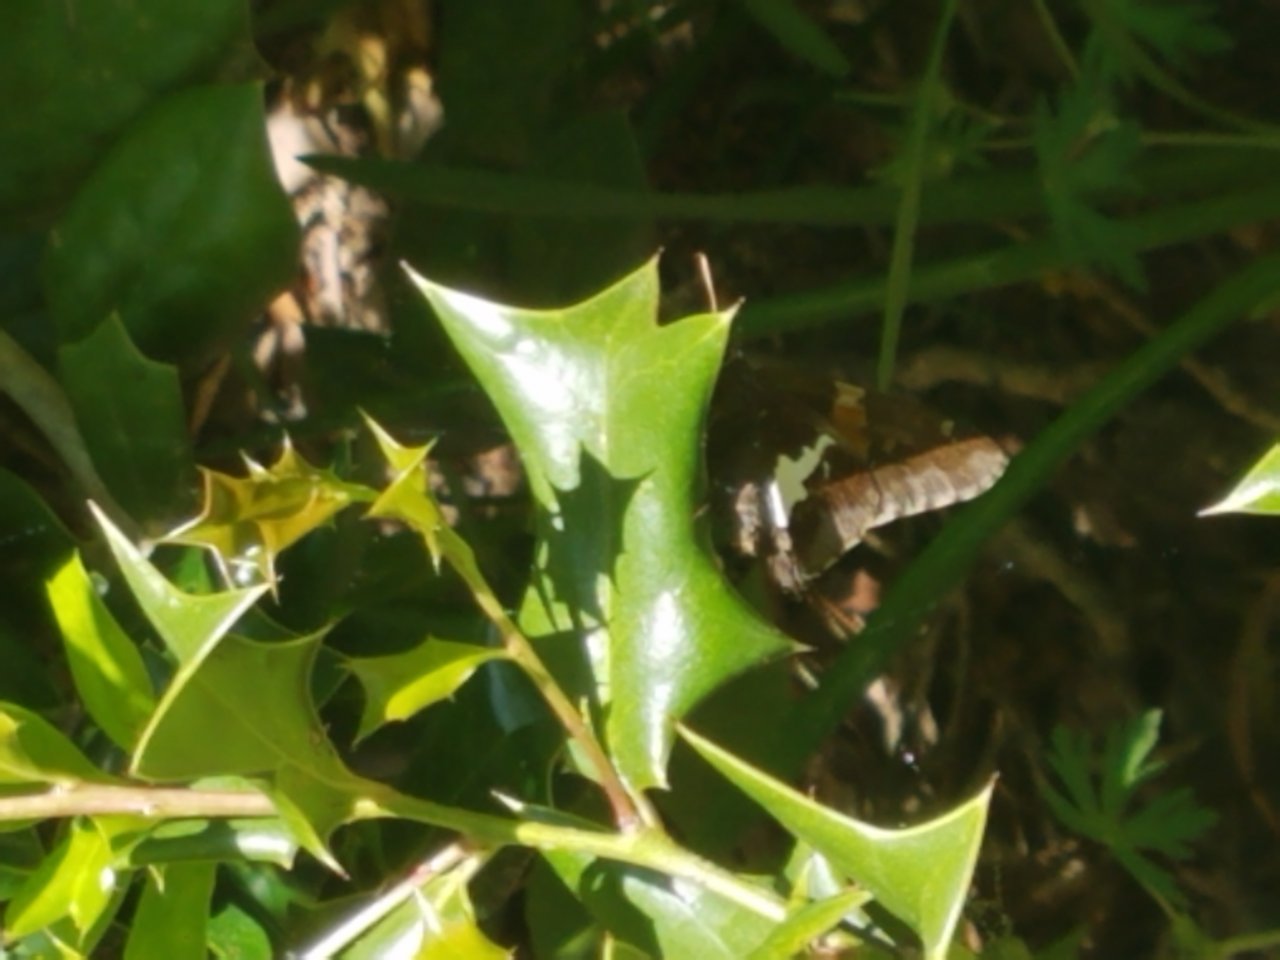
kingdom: Animalia
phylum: Arthropoda
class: Insecta
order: Lepidoptera
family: Hesperiidae
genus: Epargyreus
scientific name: Epargyreus clarus
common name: Silver-spotted Skipper
